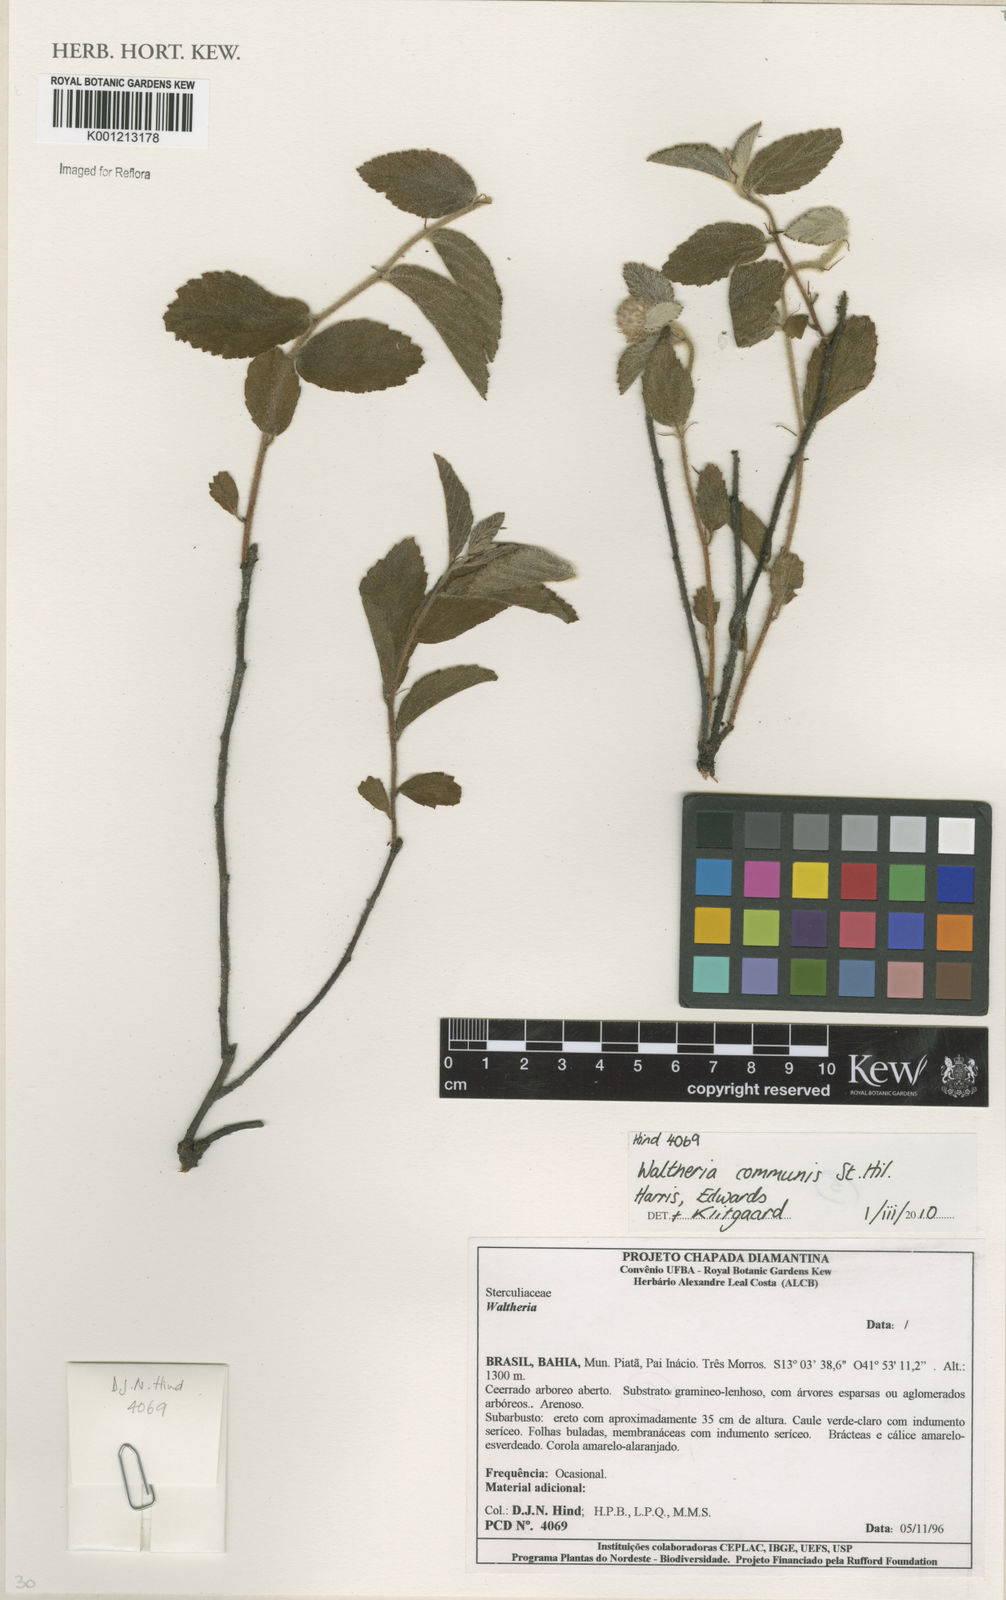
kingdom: Plantae
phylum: Tracheophyta
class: Magnoliopsida
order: Malvales
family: Malvaceae
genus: Waltheria
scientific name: Waltheria communis
